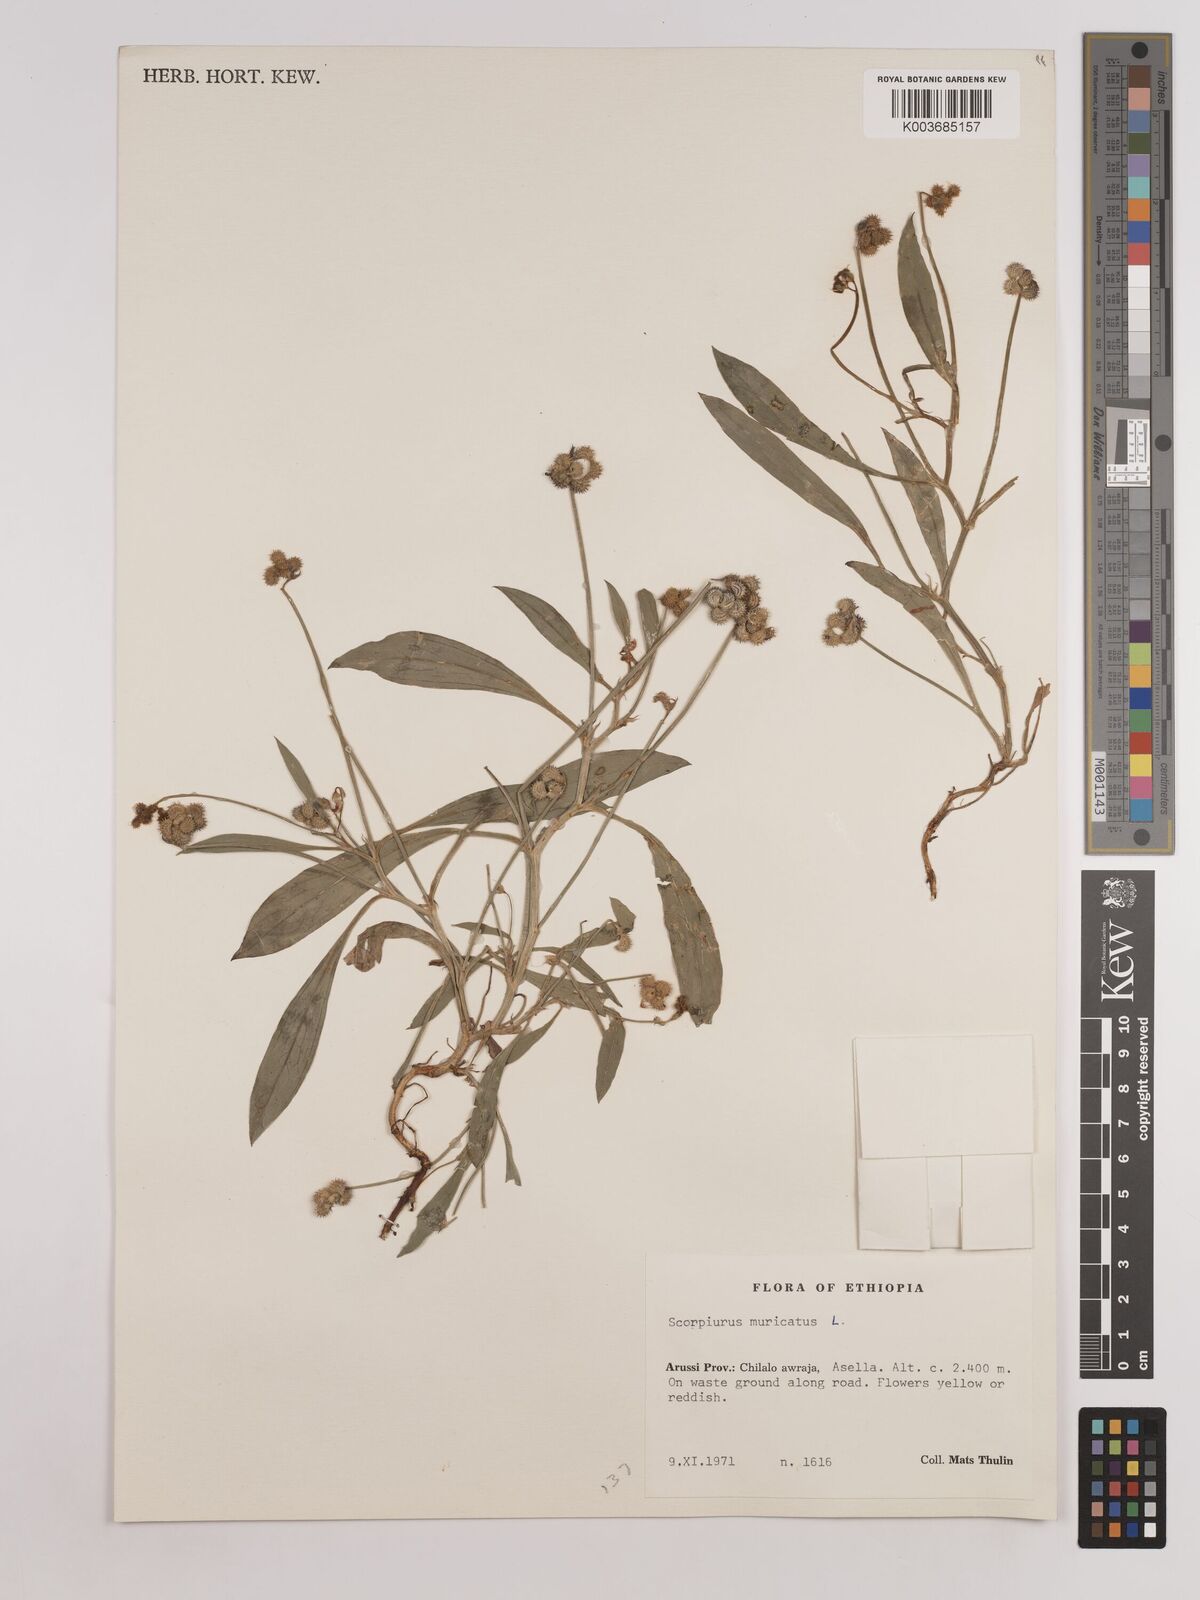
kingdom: Plantae
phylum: Tracheophyta
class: Magnoliopsida
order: Fabales
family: Fabaceae
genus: Scorpiurus
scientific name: Scorpiurus muricatus
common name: Caterpillar-plant
